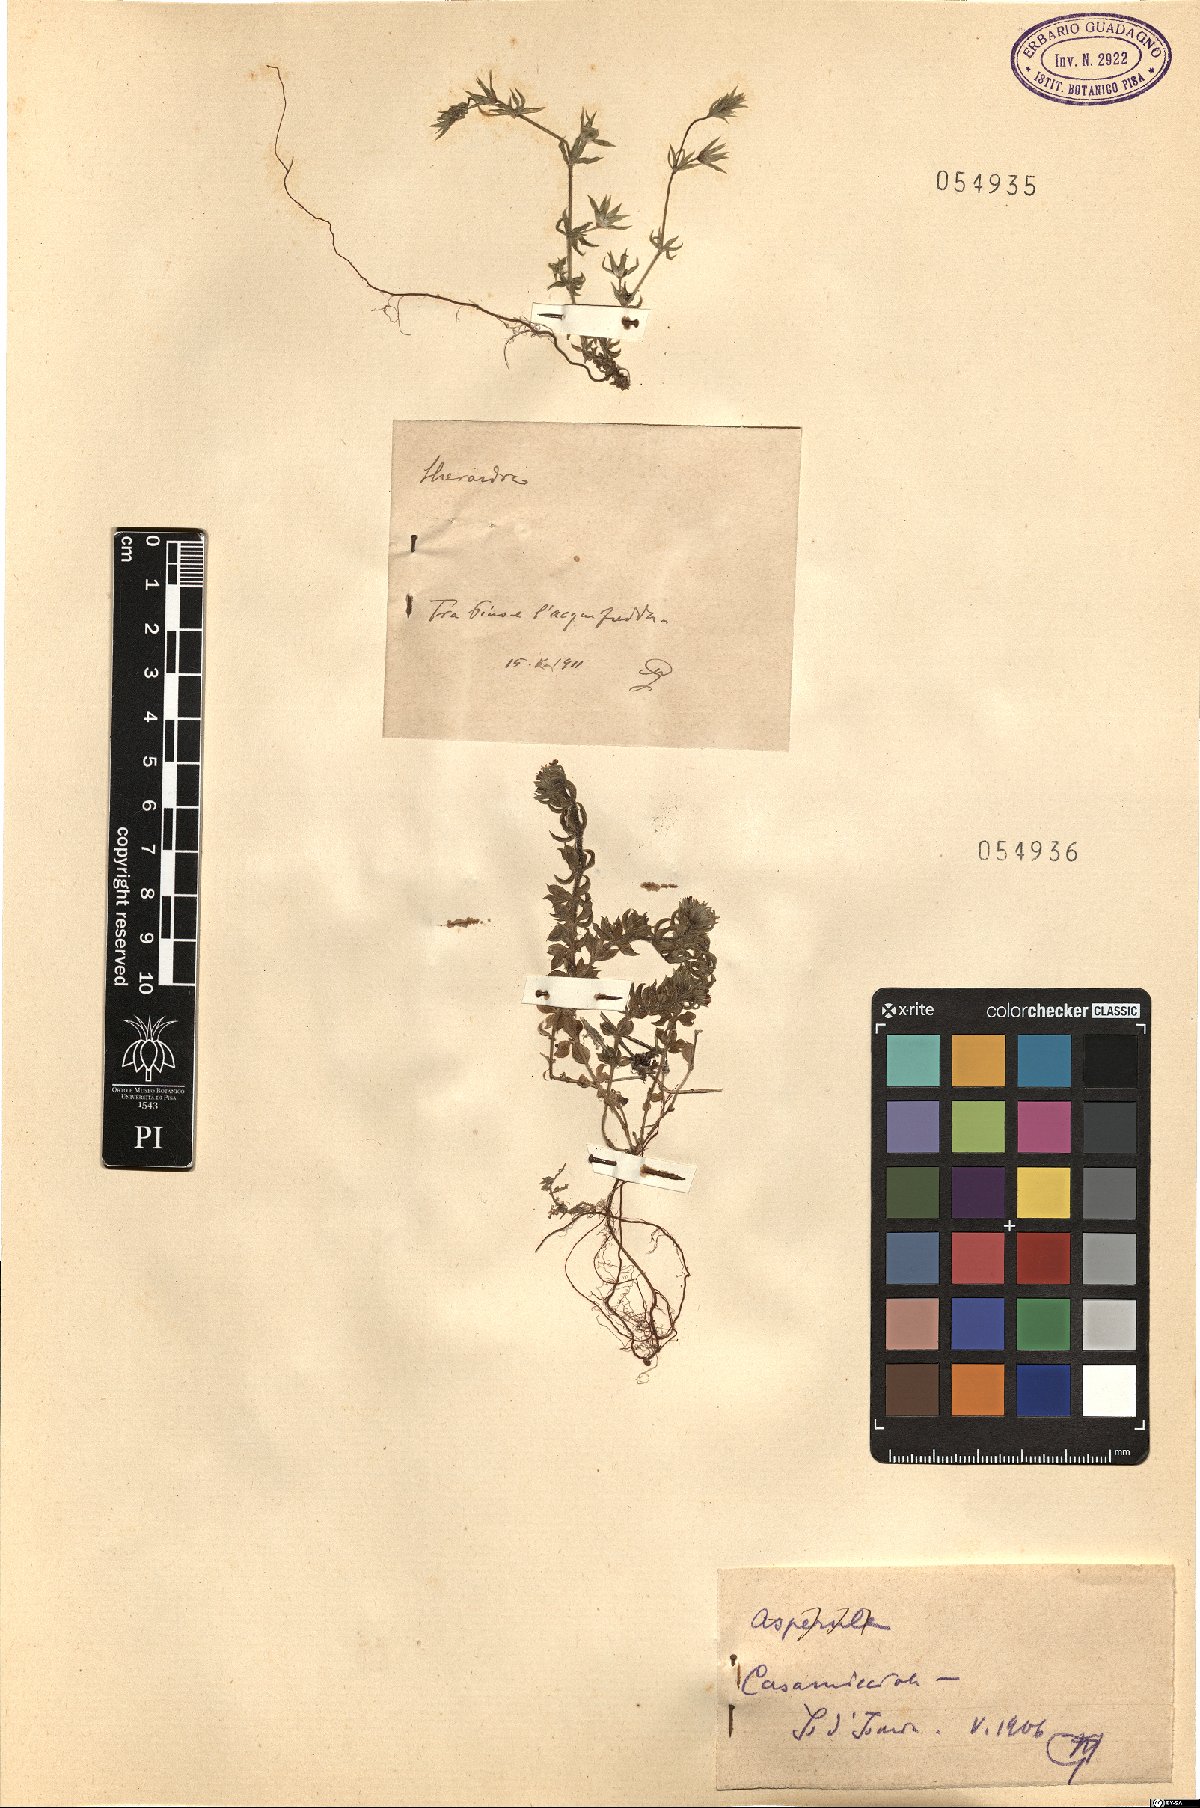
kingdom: Plantae
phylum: Tracheophyta
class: Magnoliopsida
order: Gentianales
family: Rubiaceae
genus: Asperula
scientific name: Asperula
